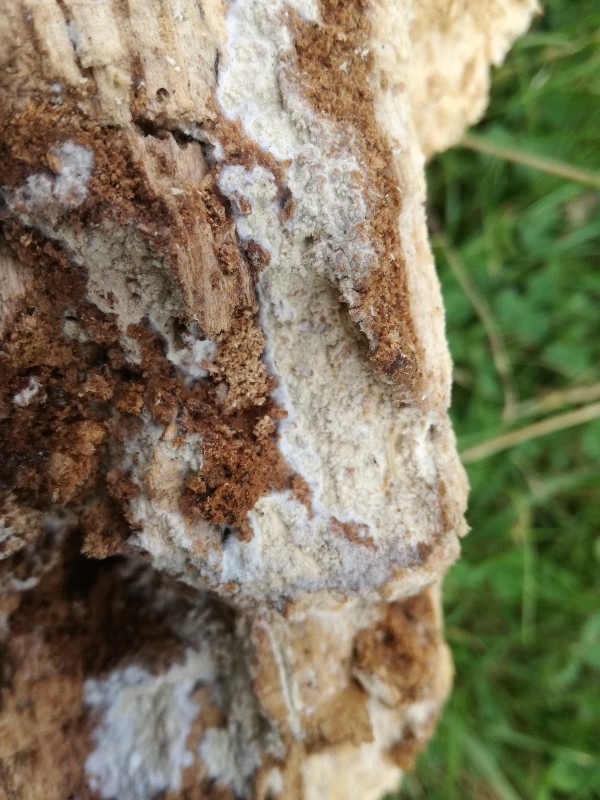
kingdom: Fungi
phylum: Basidiomycota
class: Agaricomycetes
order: Polyporales
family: Hyphodermataceae
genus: Hyphoderma
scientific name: Hyphoderma setigerum
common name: håret kalkskind
